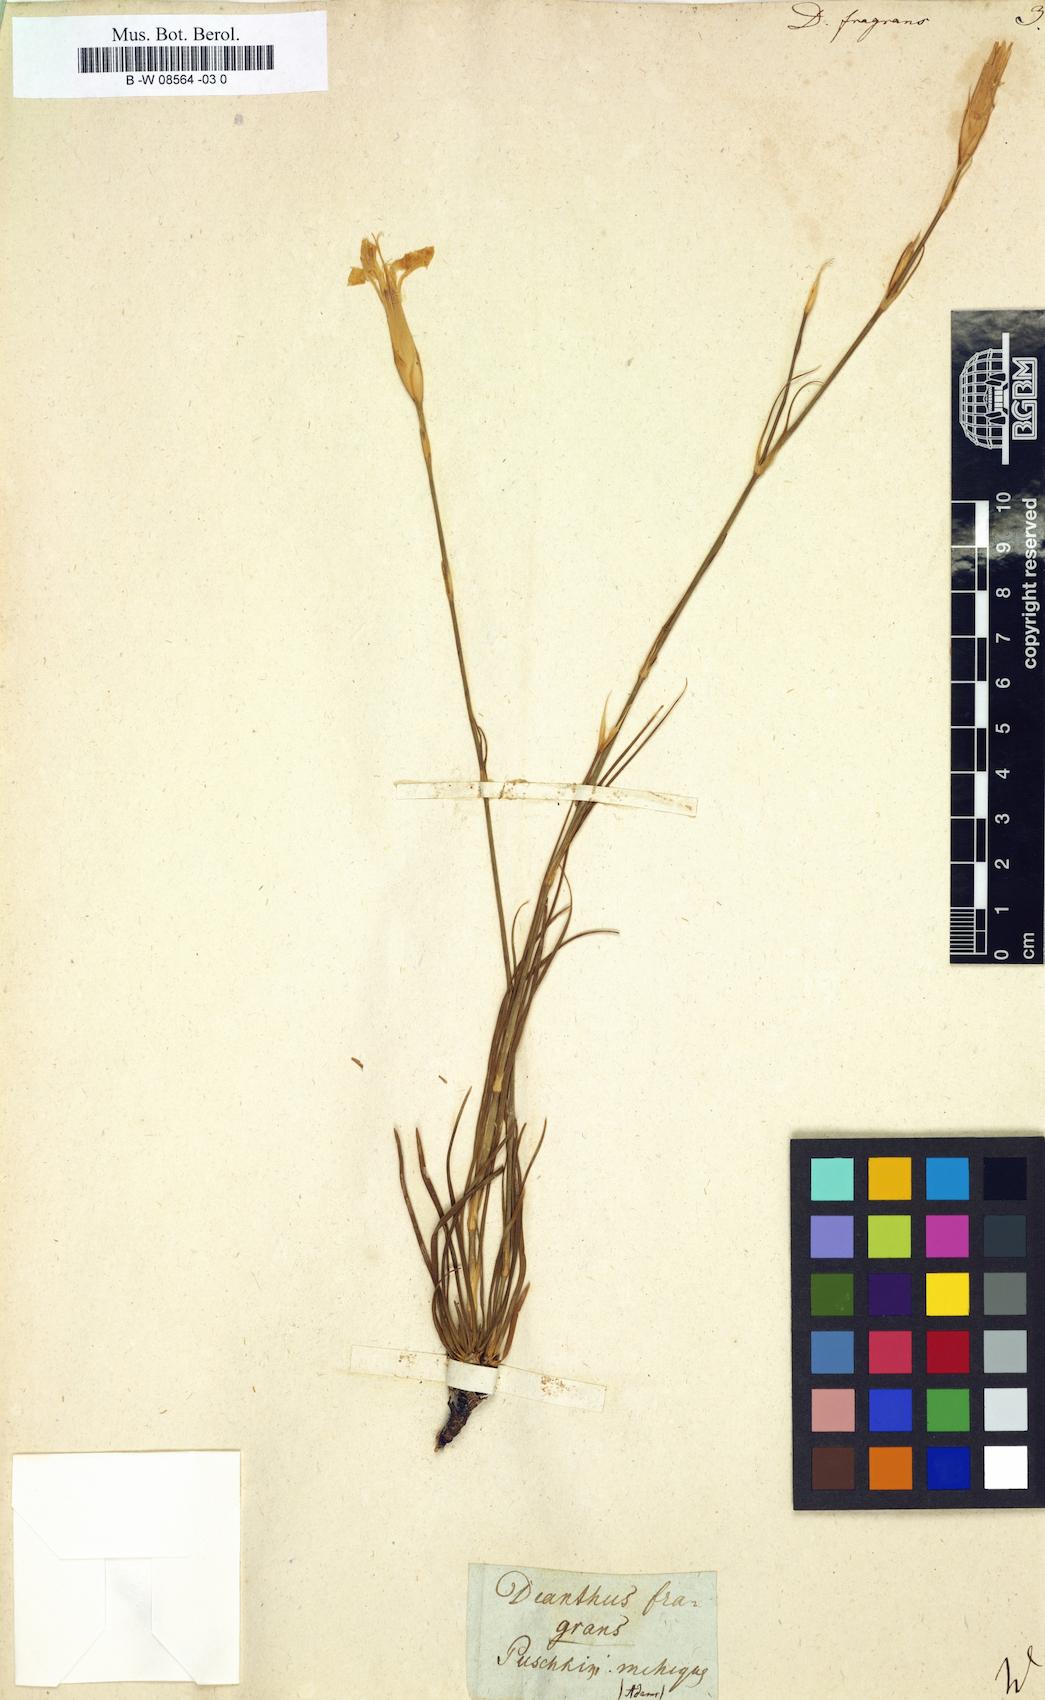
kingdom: Plantae
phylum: Tracheophyta
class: Magnoliopsida
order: Caryophyllales
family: Caryophyllaceae
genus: Dianthus
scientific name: Dianthus fragrans
